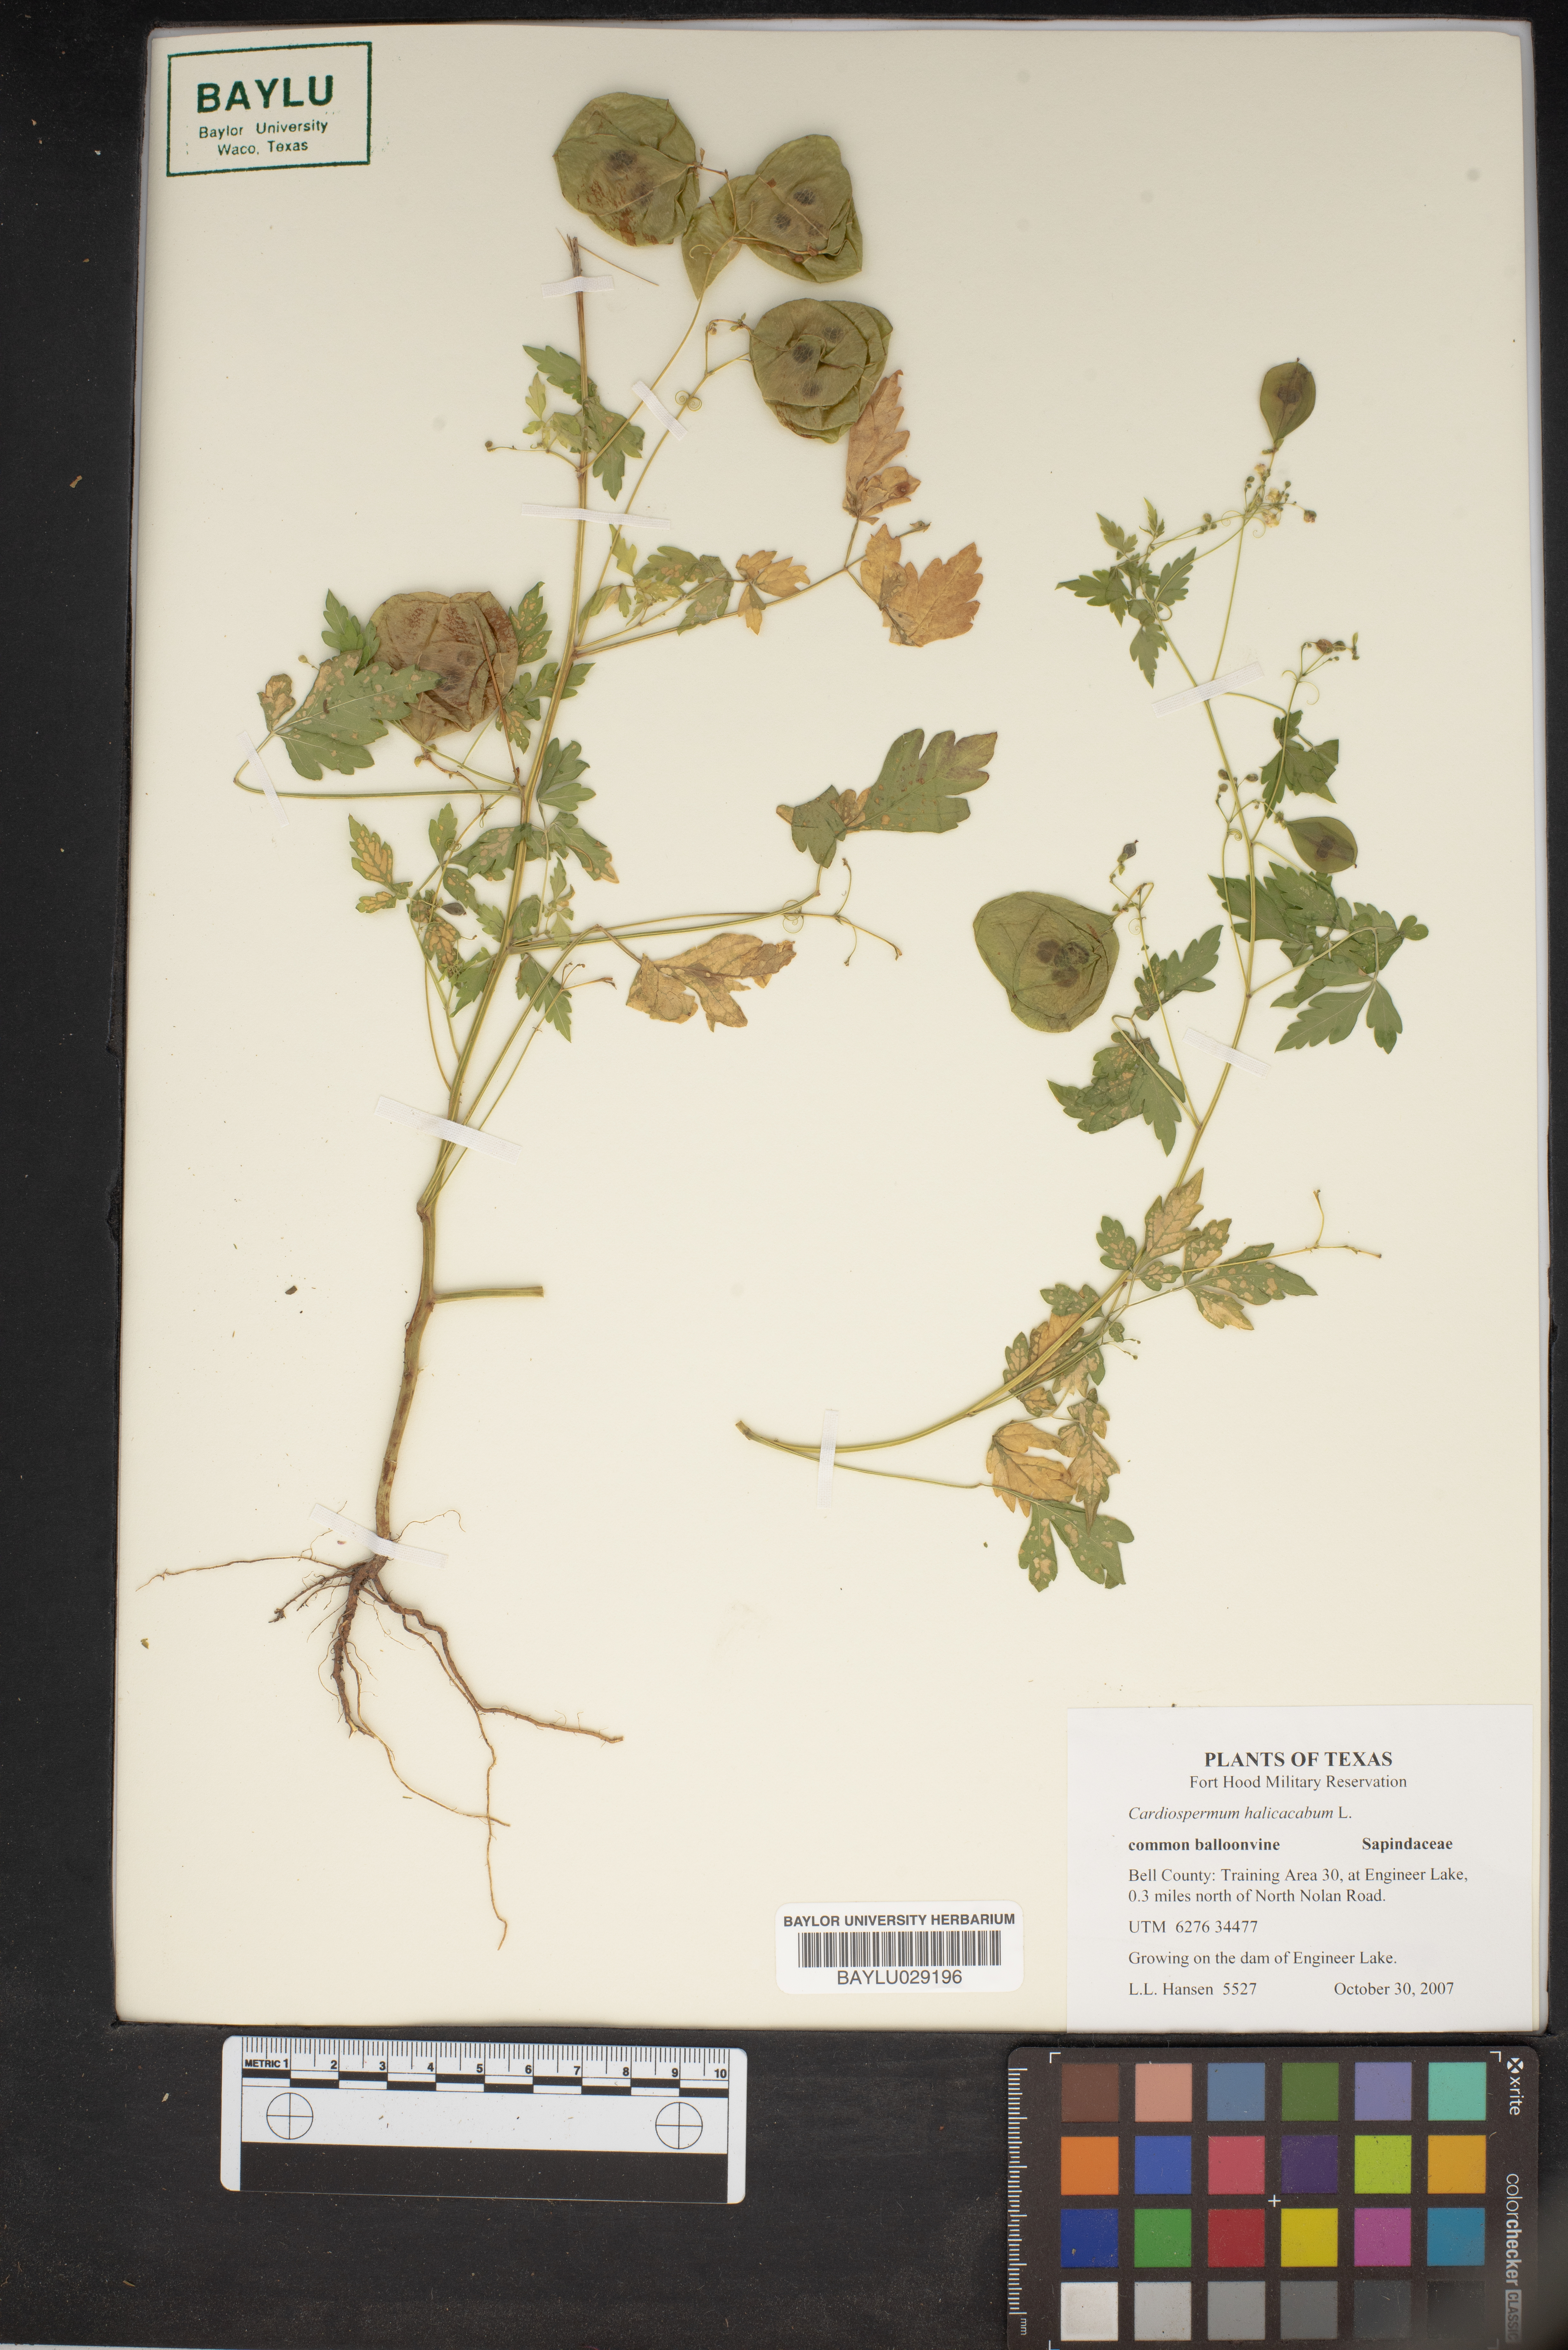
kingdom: Plantae
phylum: Tracheophyta
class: Magnoliopsida
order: Sapindales
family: Sapindaceae
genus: Cardiospermum
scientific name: Cardiospermum halicacabum
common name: Balloon vine
